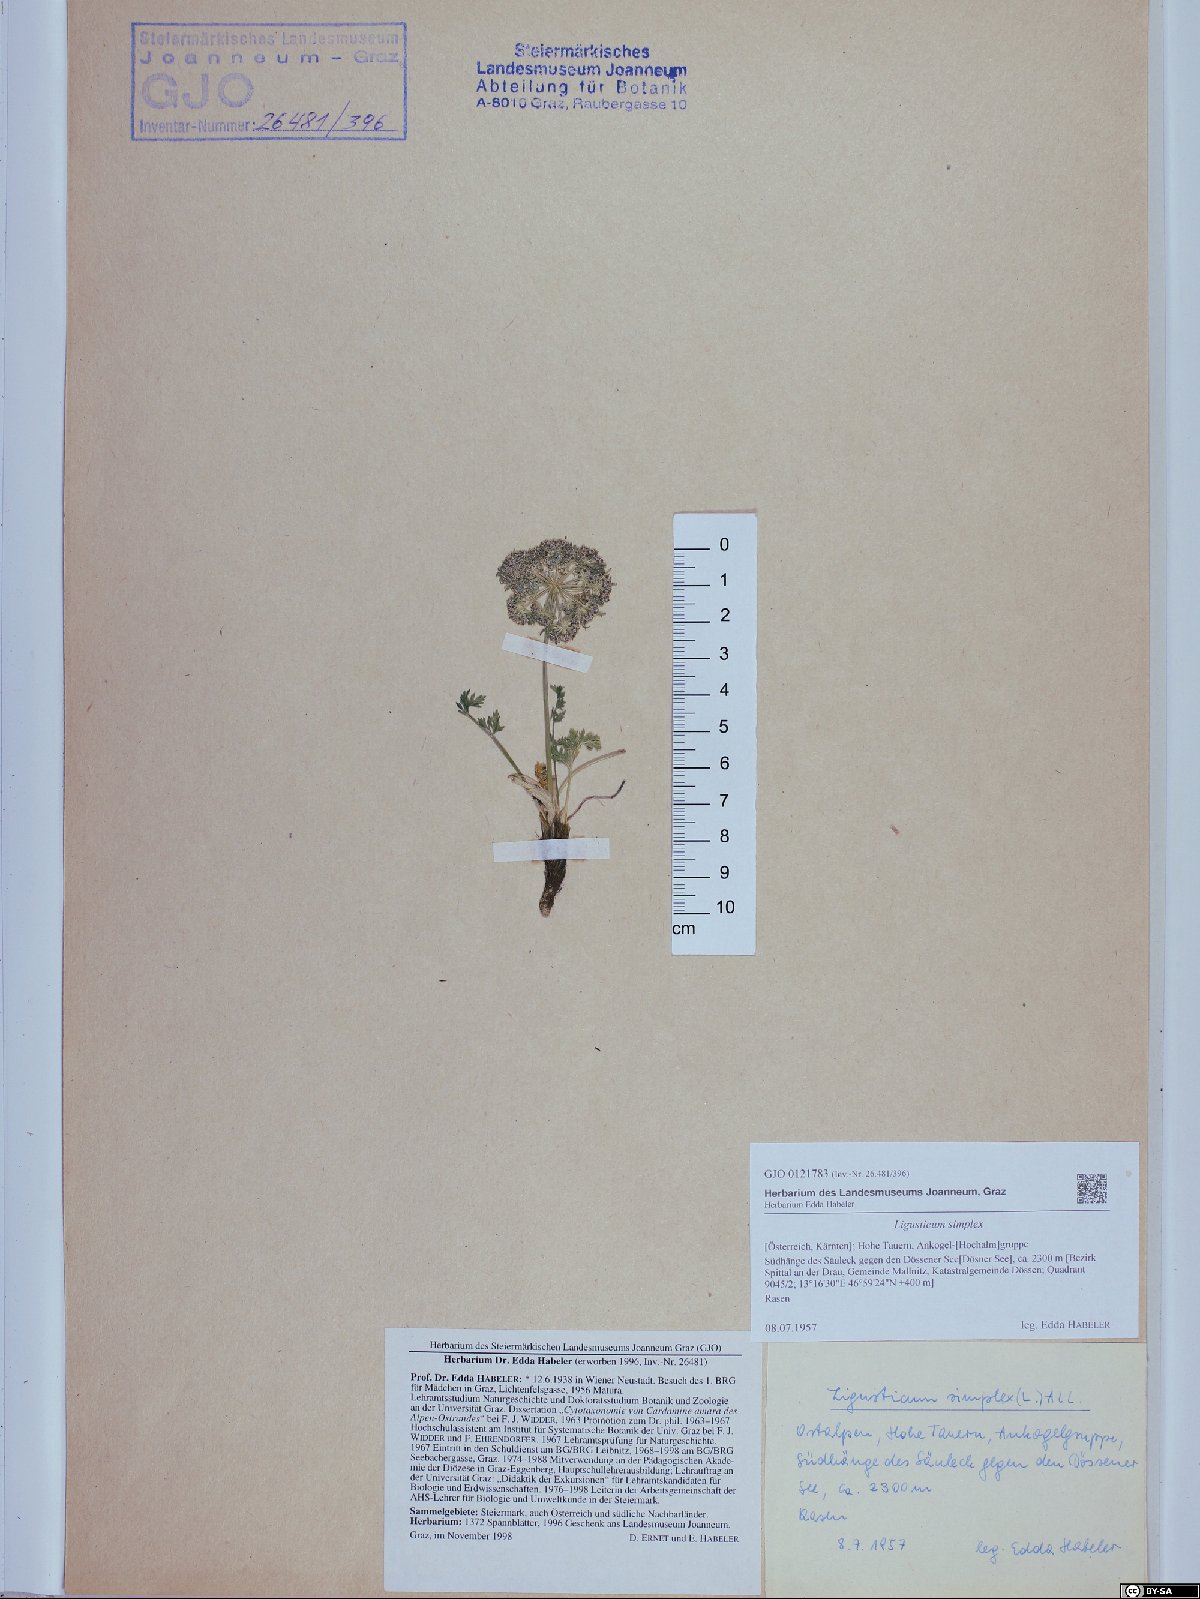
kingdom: Plantae
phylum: Tracheophyta
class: Magnoliopsida
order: Apiales
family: Apiaceae
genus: Pachypleurum
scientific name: Pachypleurum mutellinoides
